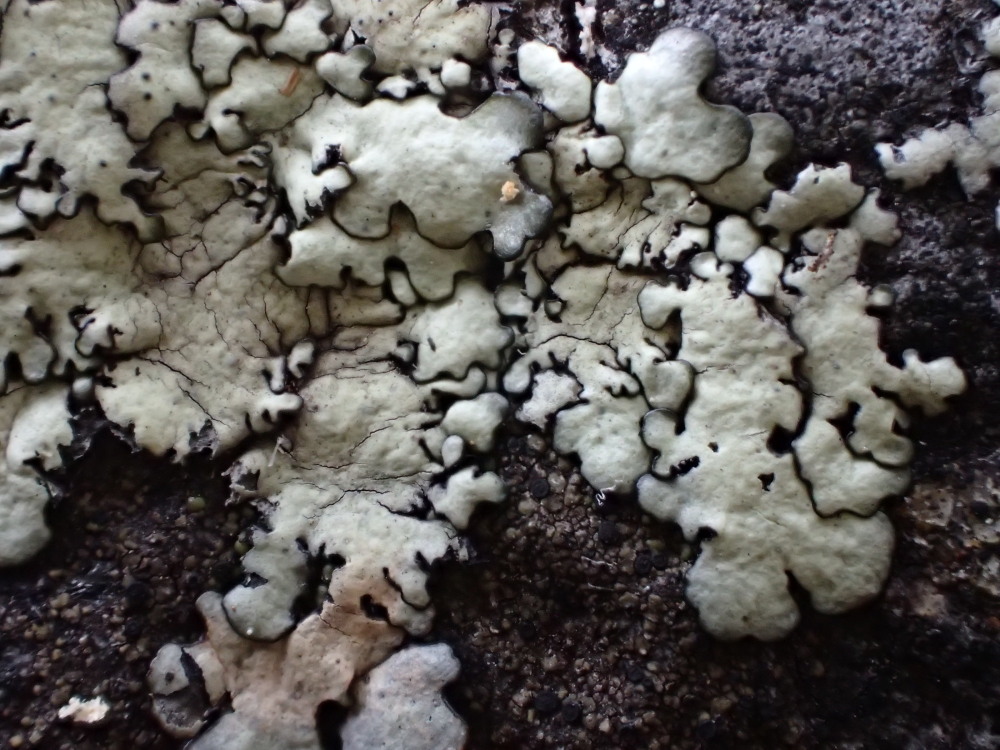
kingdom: Fungi
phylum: Ascomycota
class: Lecanoromycetes
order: Lecanorales
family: Parmeliaceae
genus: Xanthoparmelia
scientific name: Xanthoparmelia stenophylla
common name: Shingled rock shield
